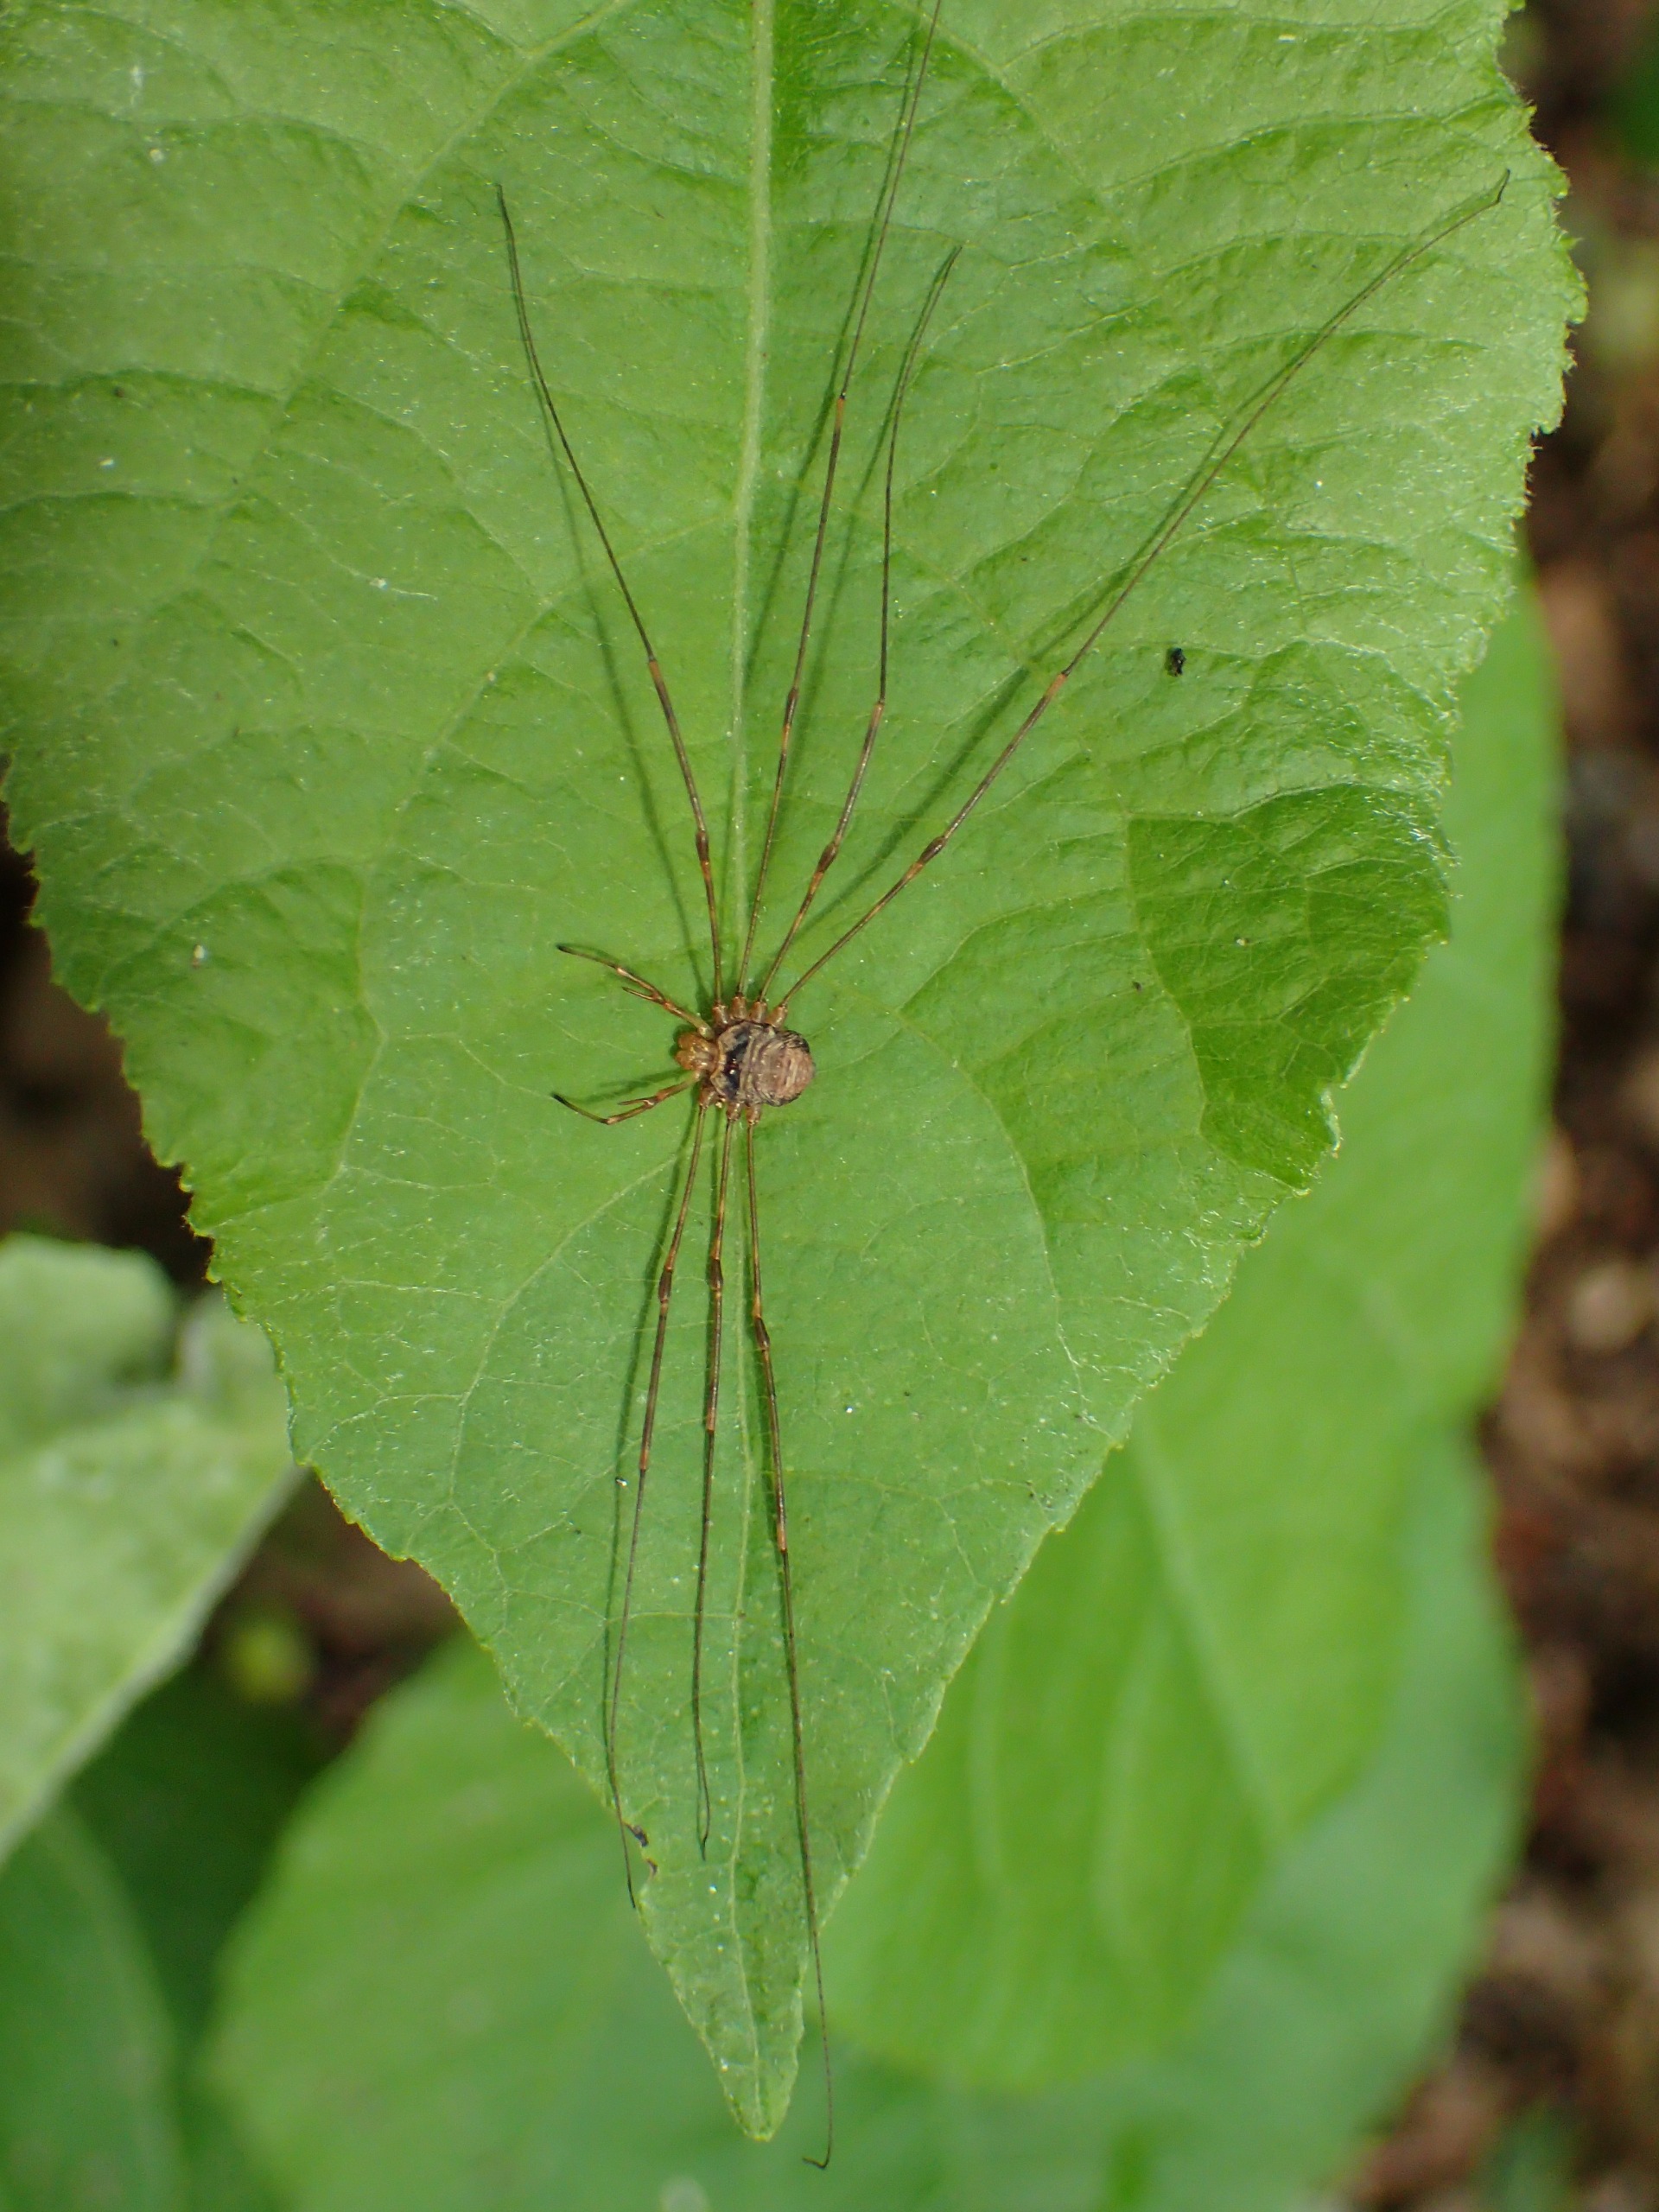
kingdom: Animalia
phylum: Arthropoda
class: Arachnida
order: Opiliones
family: Phalangiidae
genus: Dicranopalpus
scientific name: Dicranopalpus ramosus
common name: Gaffelmejer
